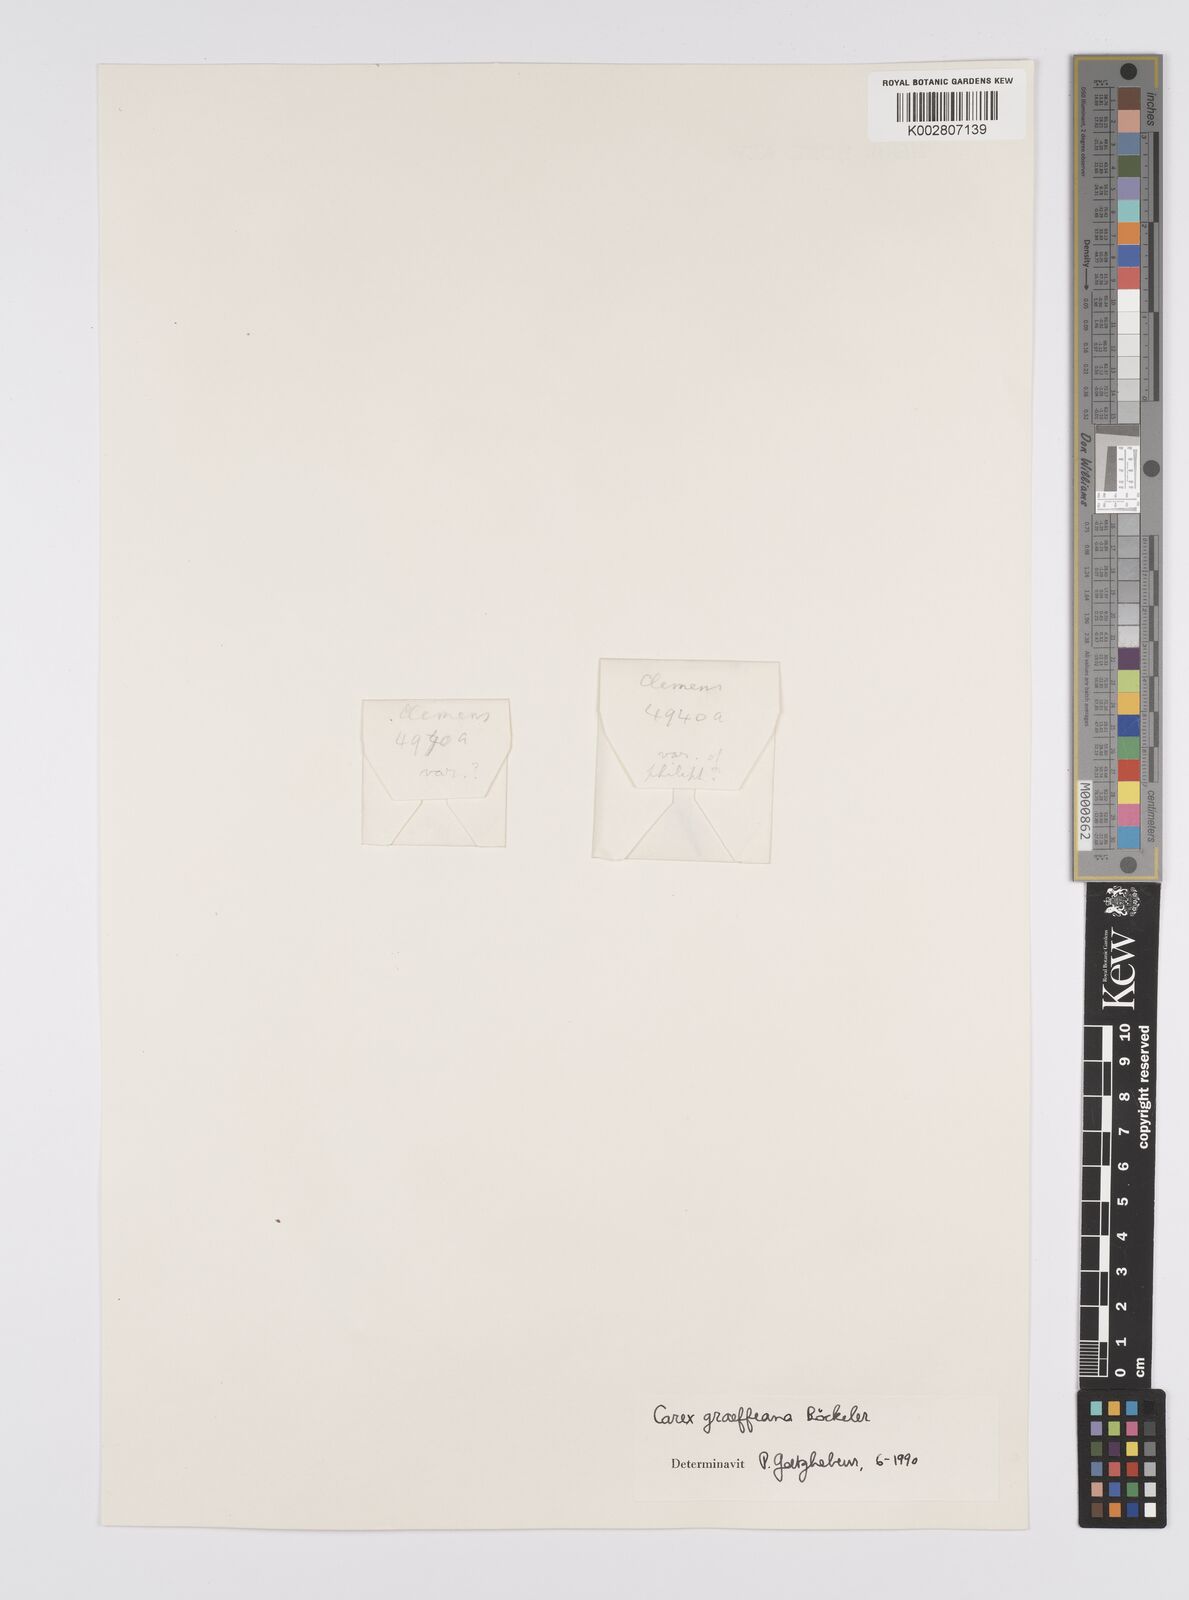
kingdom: Plantae
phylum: Tracheophyta
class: Liliopsida
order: Poales
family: Cyperaceae
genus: Carex
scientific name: Carex graeffeana
